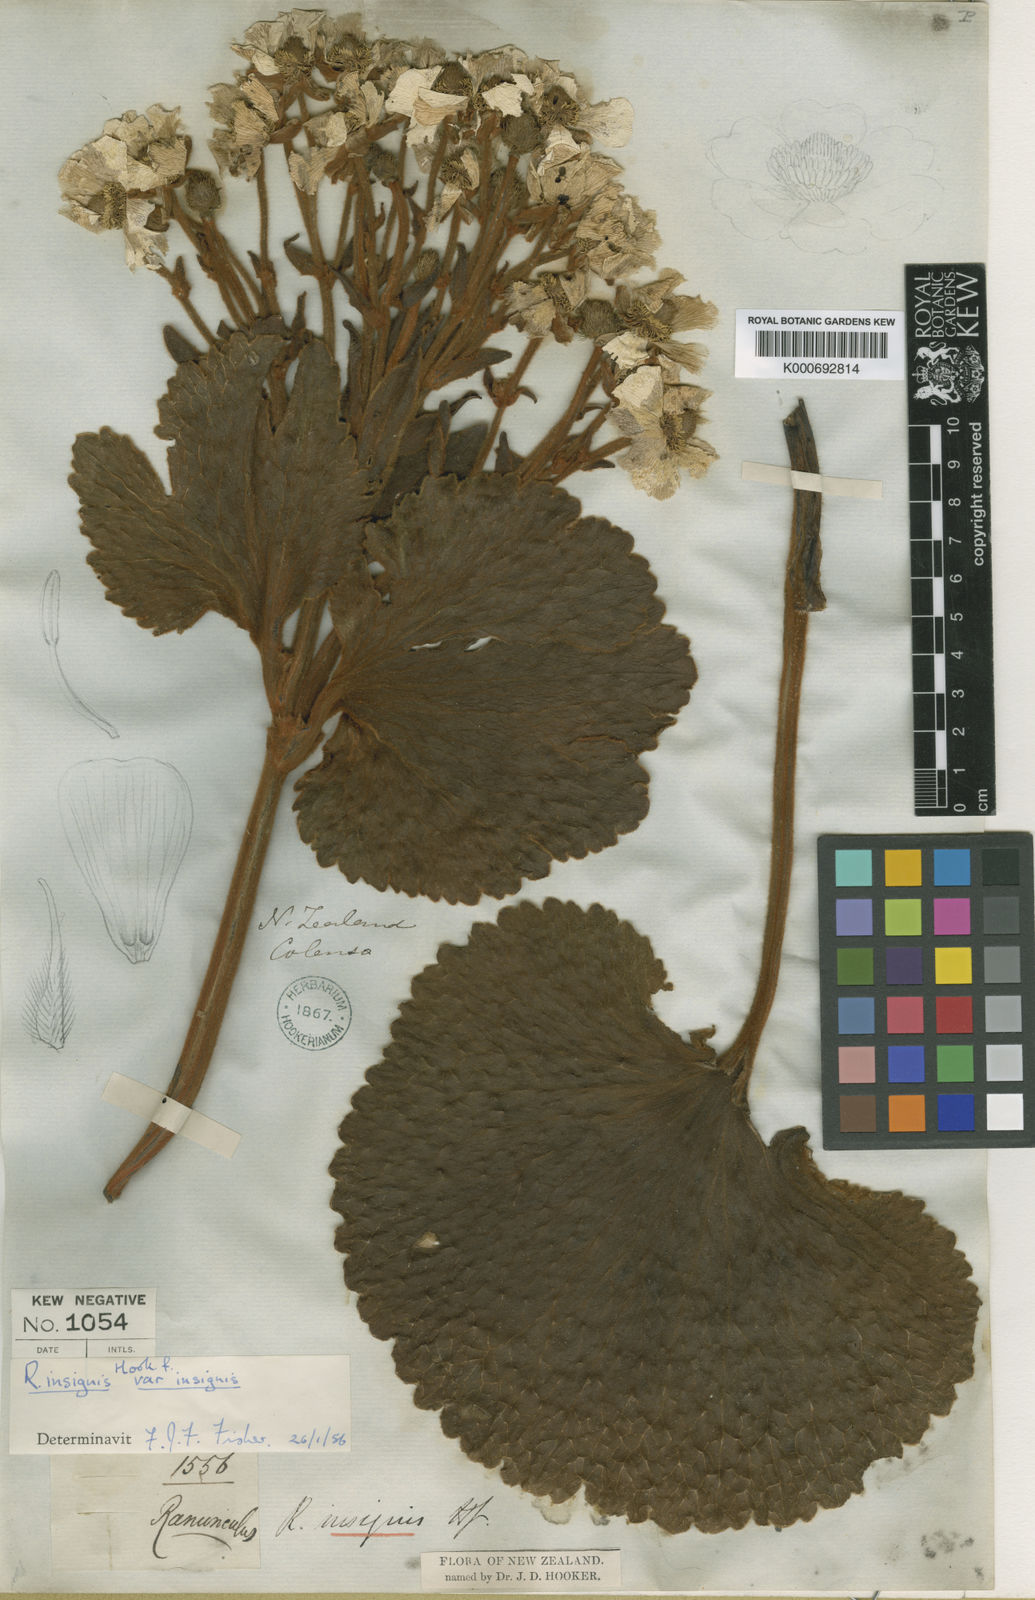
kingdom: Plantae
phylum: Tracheophyta
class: Magnoliopsida
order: Ranunculales
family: Ranunculaceae
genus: Ranunculus
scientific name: Ranunculus insignis
